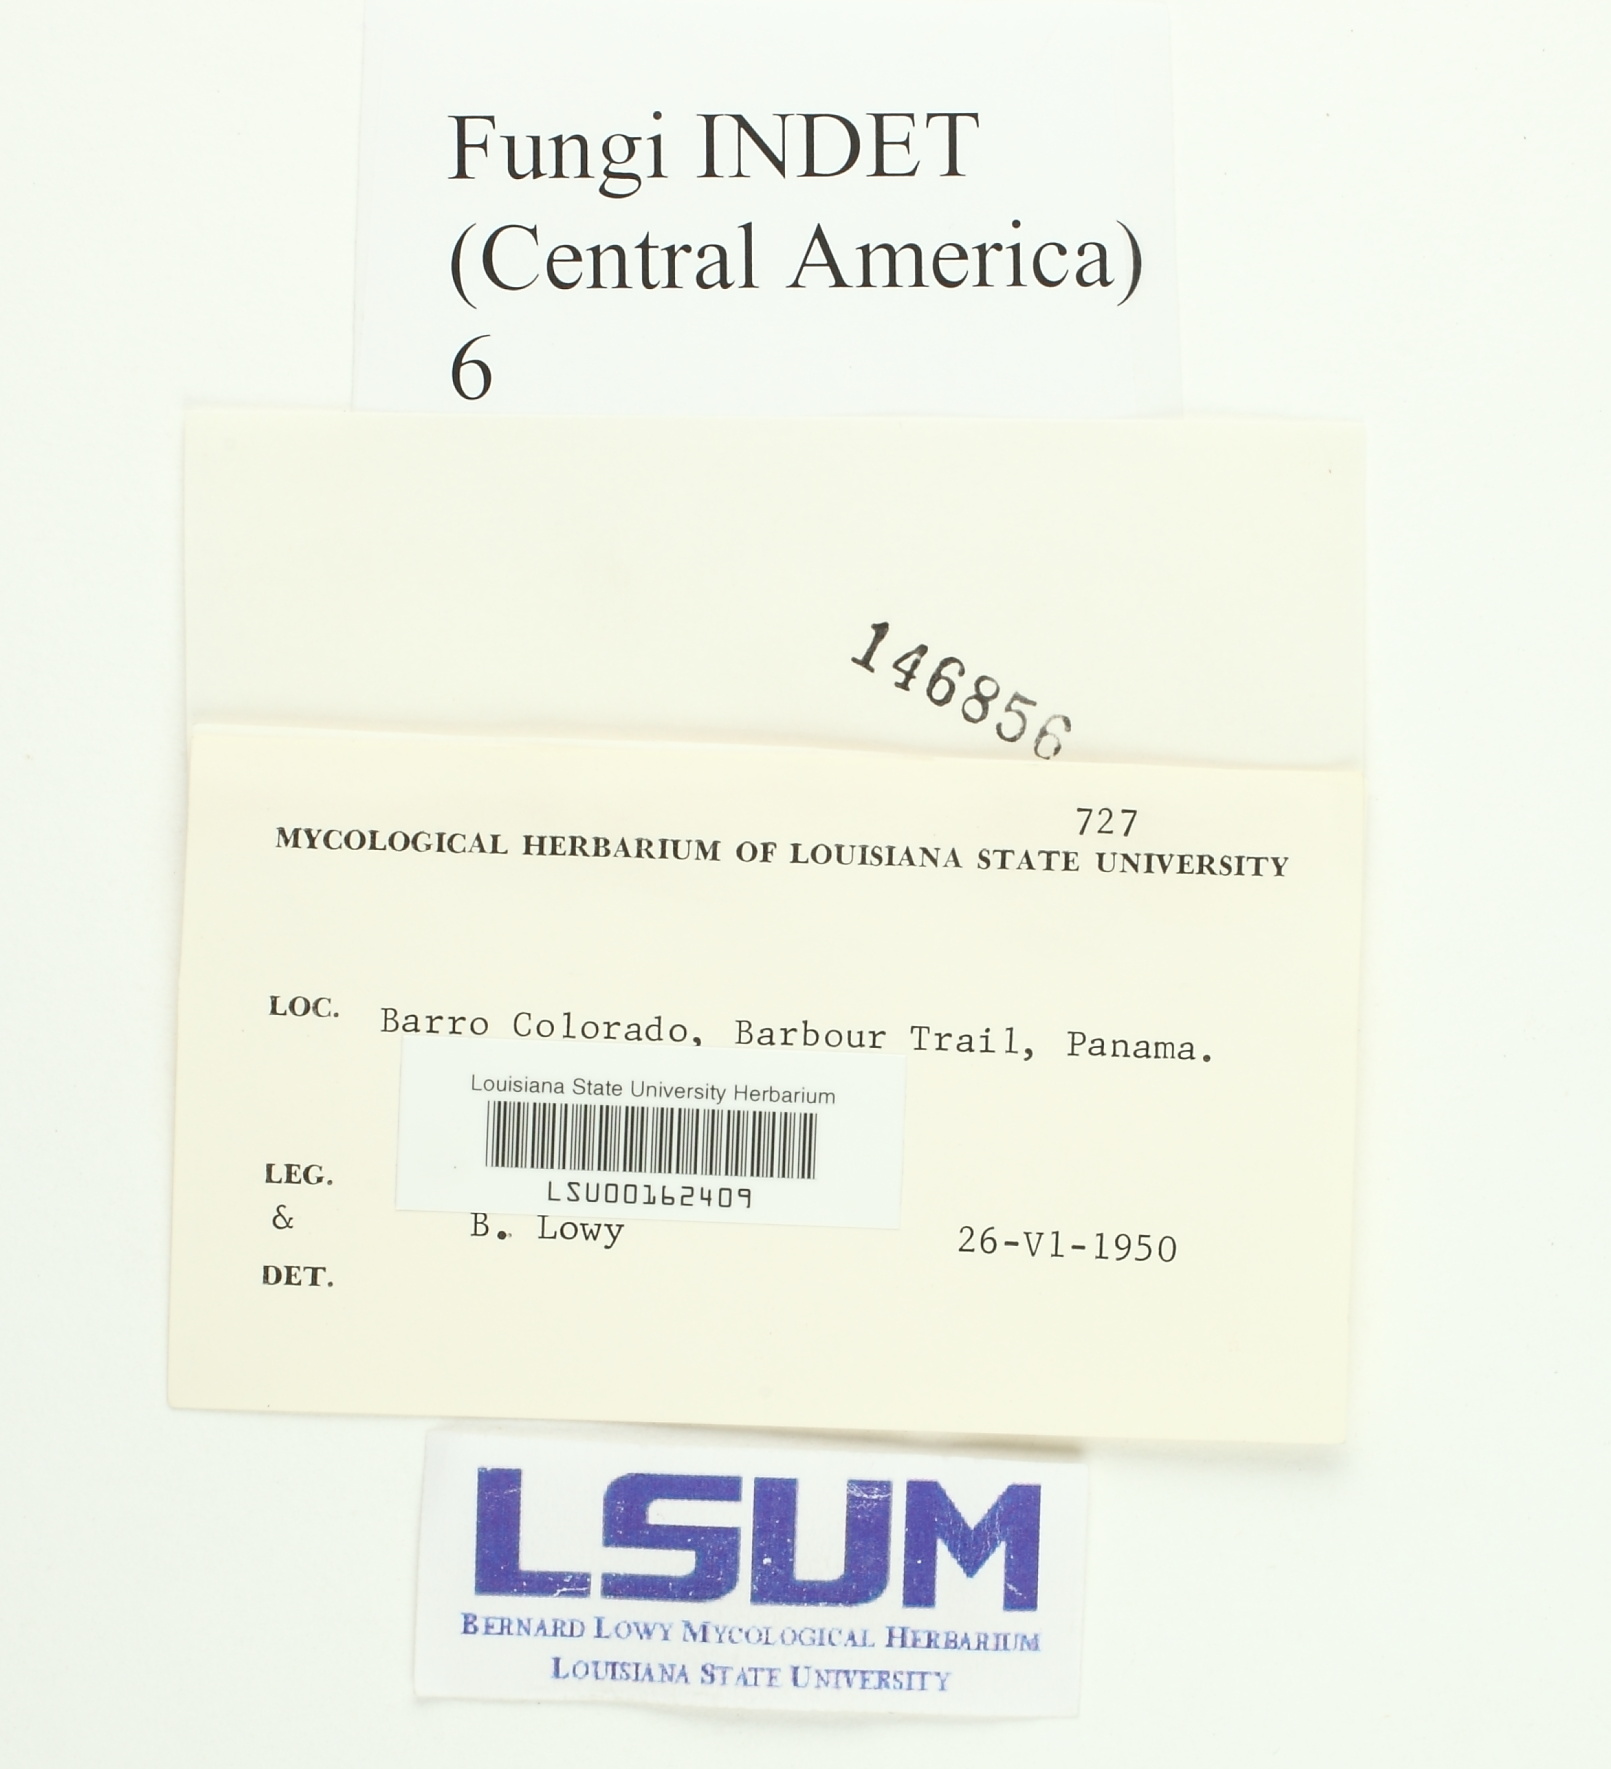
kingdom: Fungi
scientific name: Fungi
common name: Fungi
